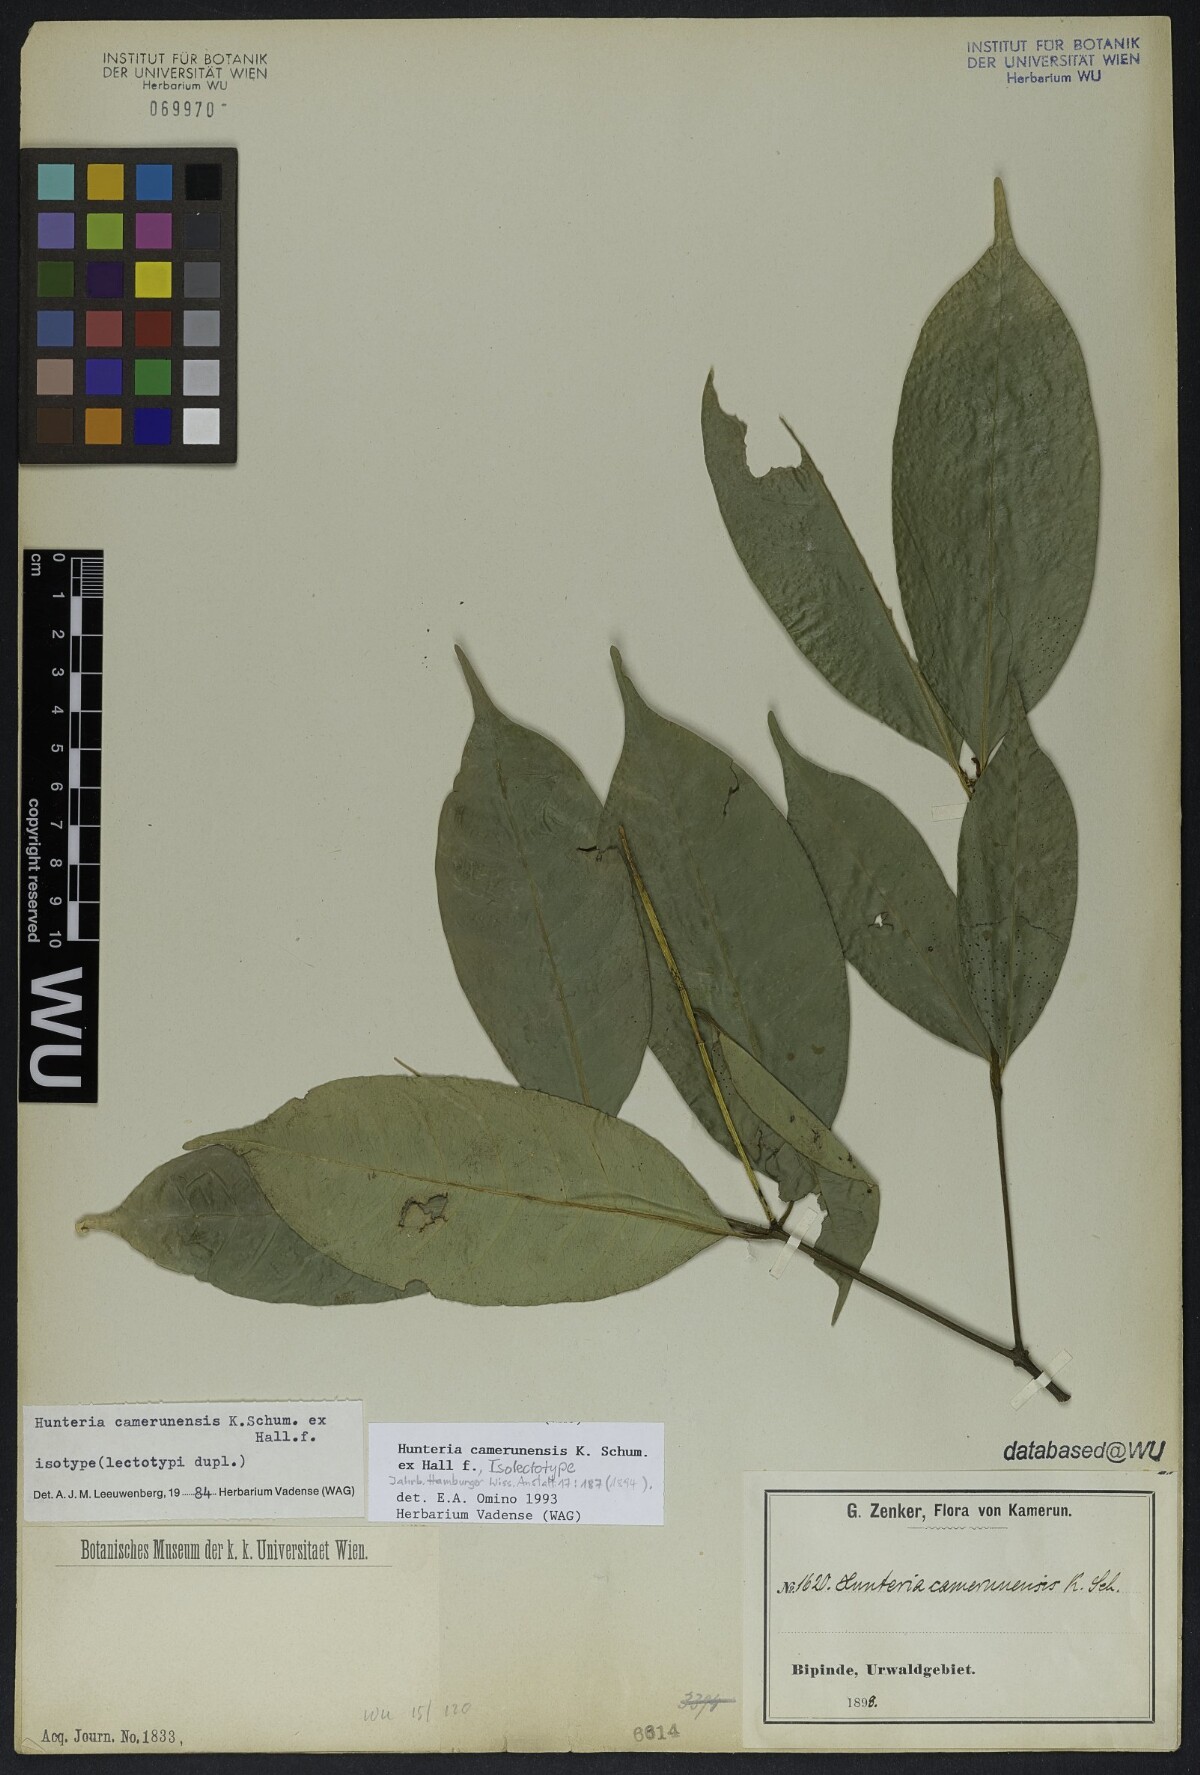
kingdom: Plantae
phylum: Tracheophyta
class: Magnoliopsida
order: Gentianales
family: Apocynaceae
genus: Hunteria
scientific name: Hunteria camerunensis
